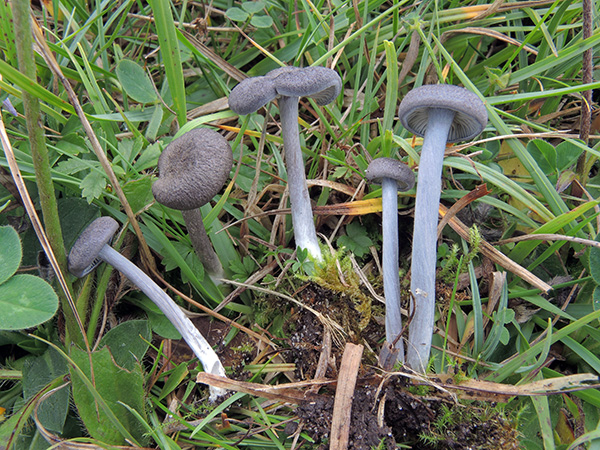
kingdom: Fungi
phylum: Basidiomycota
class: Agaricomycetes
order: Agaricales
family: Entolomataceae
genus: Entoloma
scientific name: Entoloma mougeotii
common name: violetgrå rødblad
